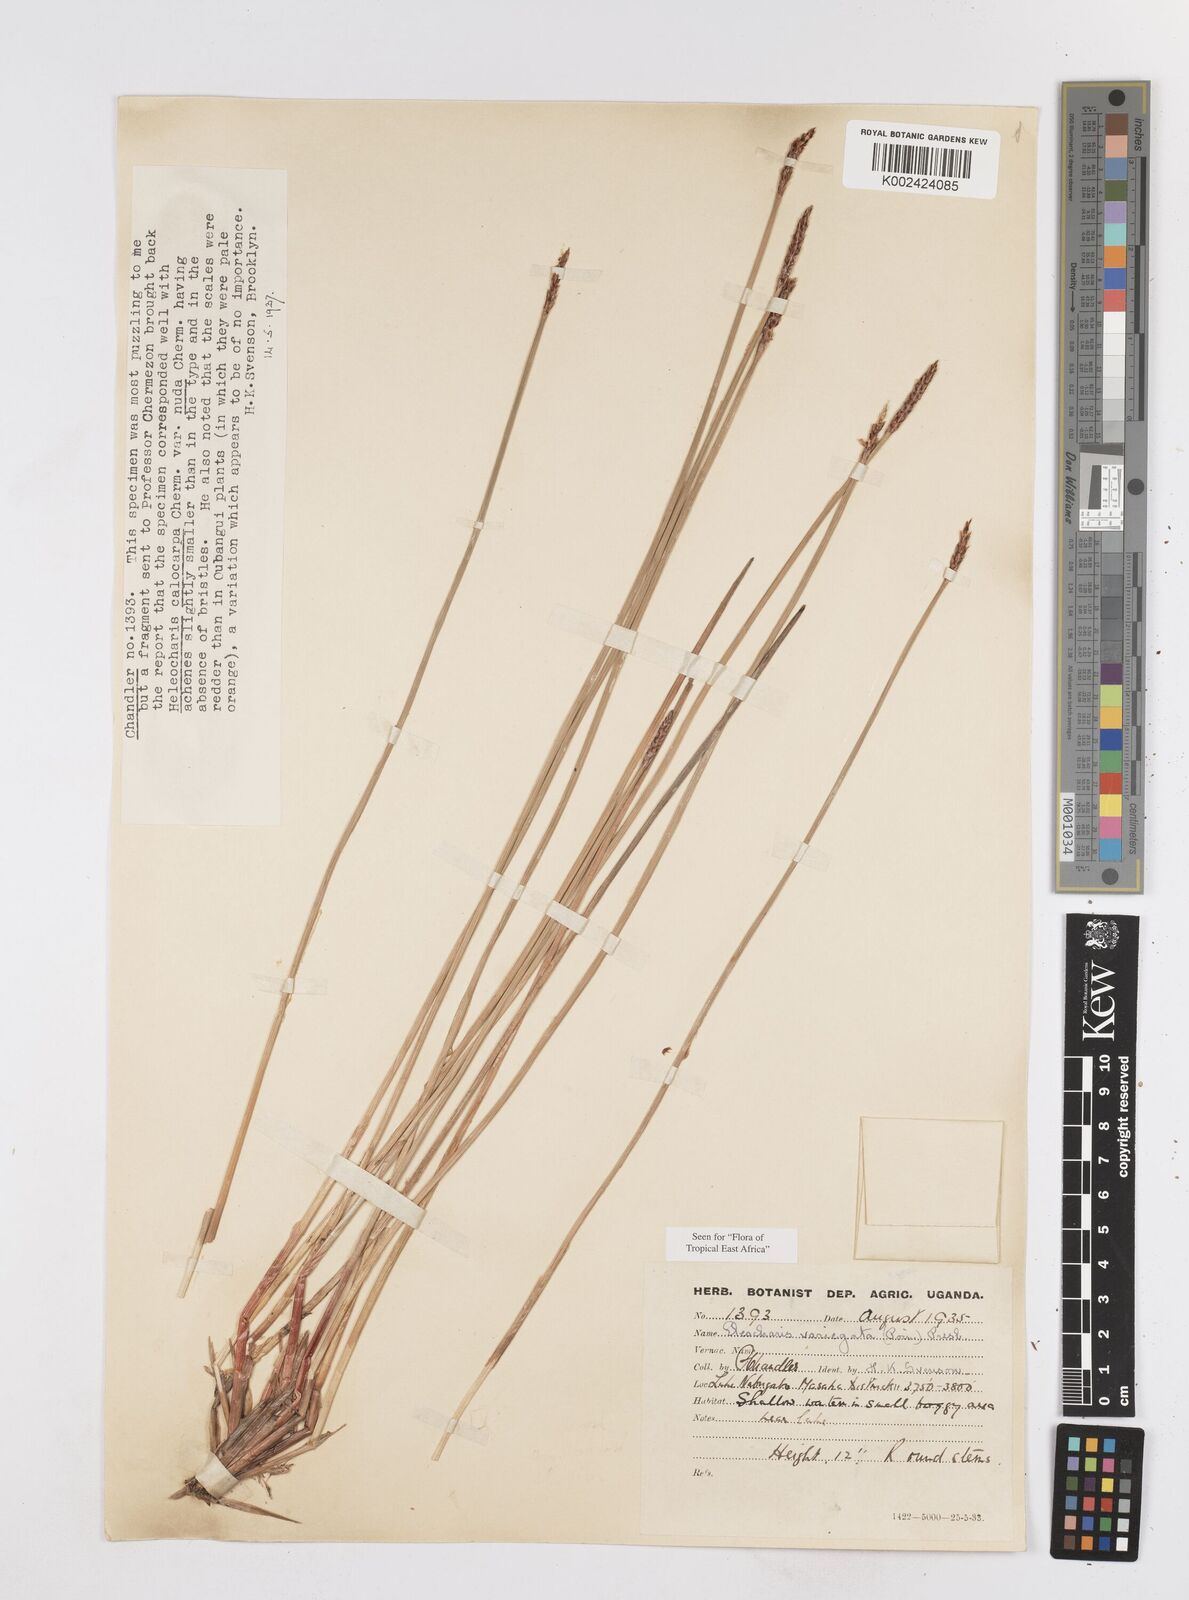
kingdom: Plantae
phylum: Tracheophyta
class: Liliopsida
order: Poales
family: Cyperaceae
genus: Eleocharis
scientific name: Eleocharis variegata
